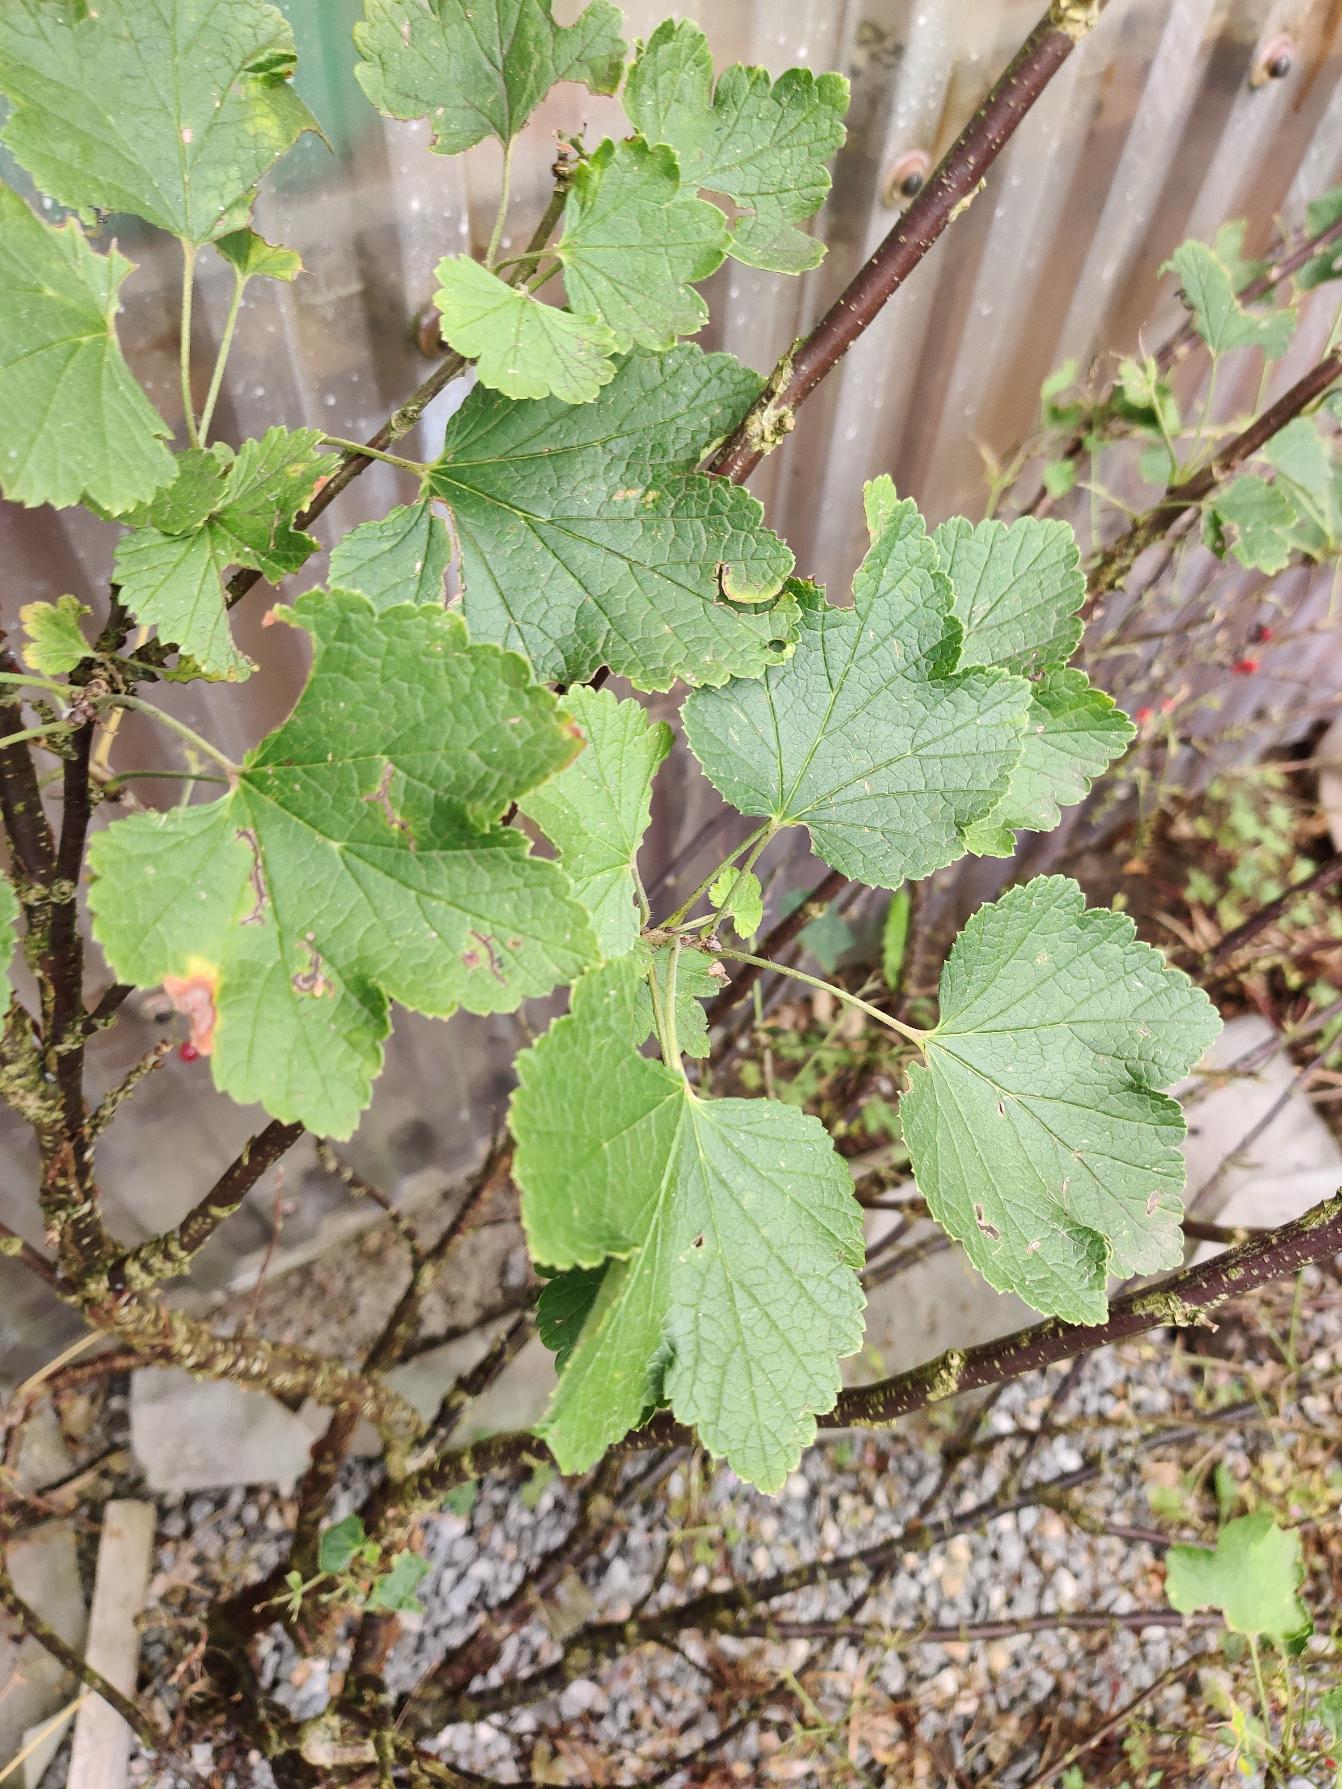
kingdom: Plantae
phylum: Tracheophyta
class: Magnoliopsida
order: Saxifragales
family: Grossulariaceae
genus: Ribes
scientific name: Ribes
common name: Ribsslægten
